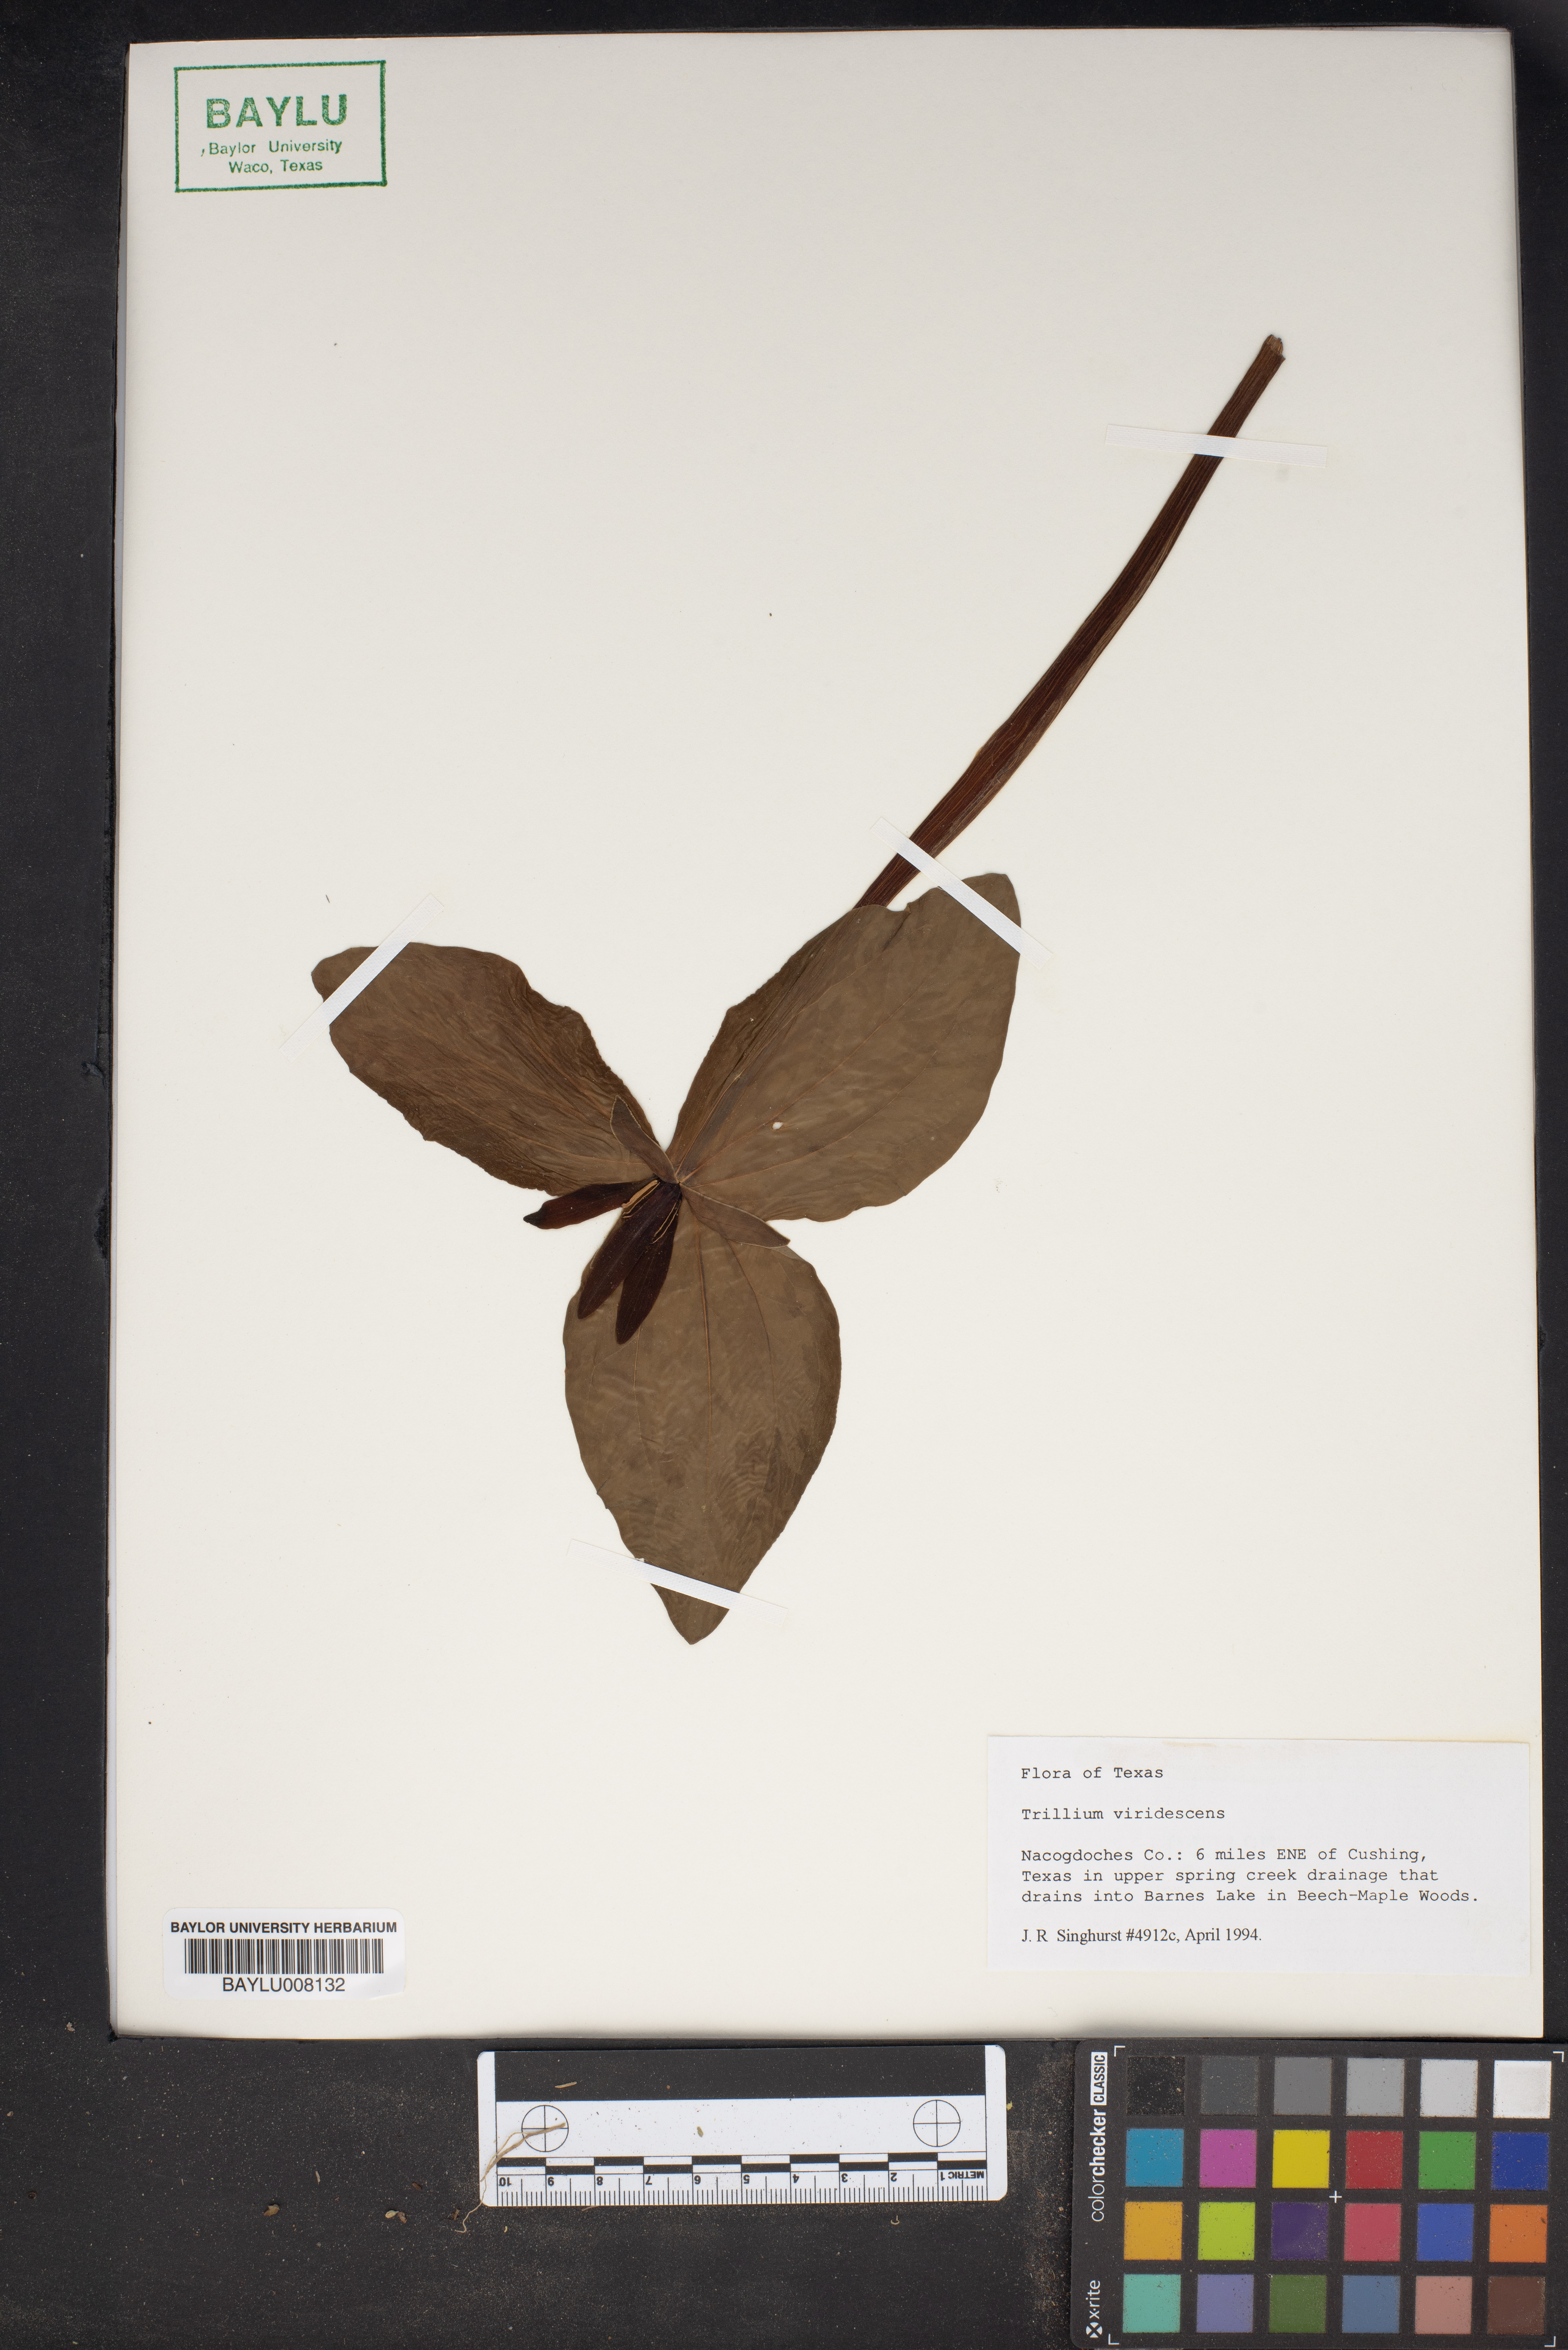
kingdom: Plantae
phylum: Tracheophyta
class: Liliopsida
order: Liliales
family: Melanthiaceae
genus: Trillium
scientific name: Trillium viridescens
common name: Ozark green trillium
